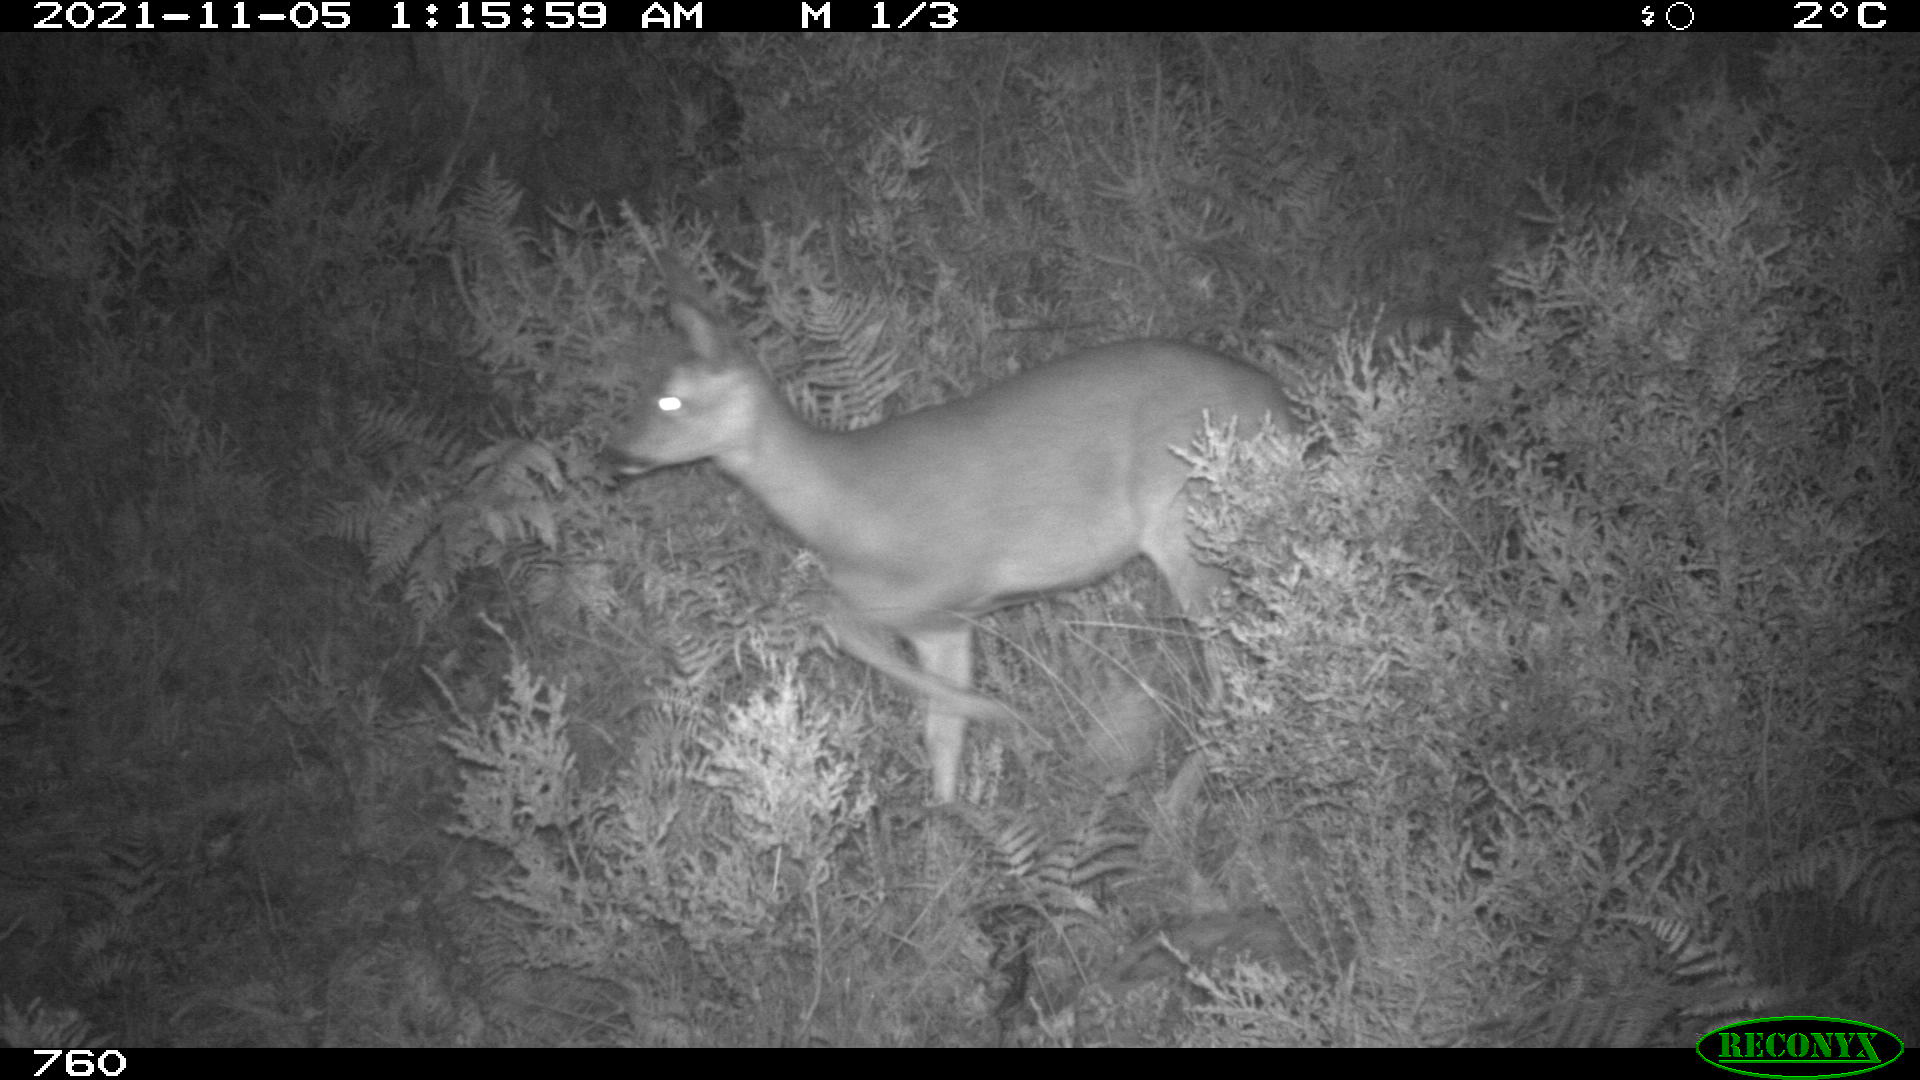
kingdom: Animalia
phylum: Chordata
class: Mammalia
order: Artiodactyla
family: Cervidae
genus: Capreolus
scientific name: Capreolus capreolus
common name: Western roe deer
